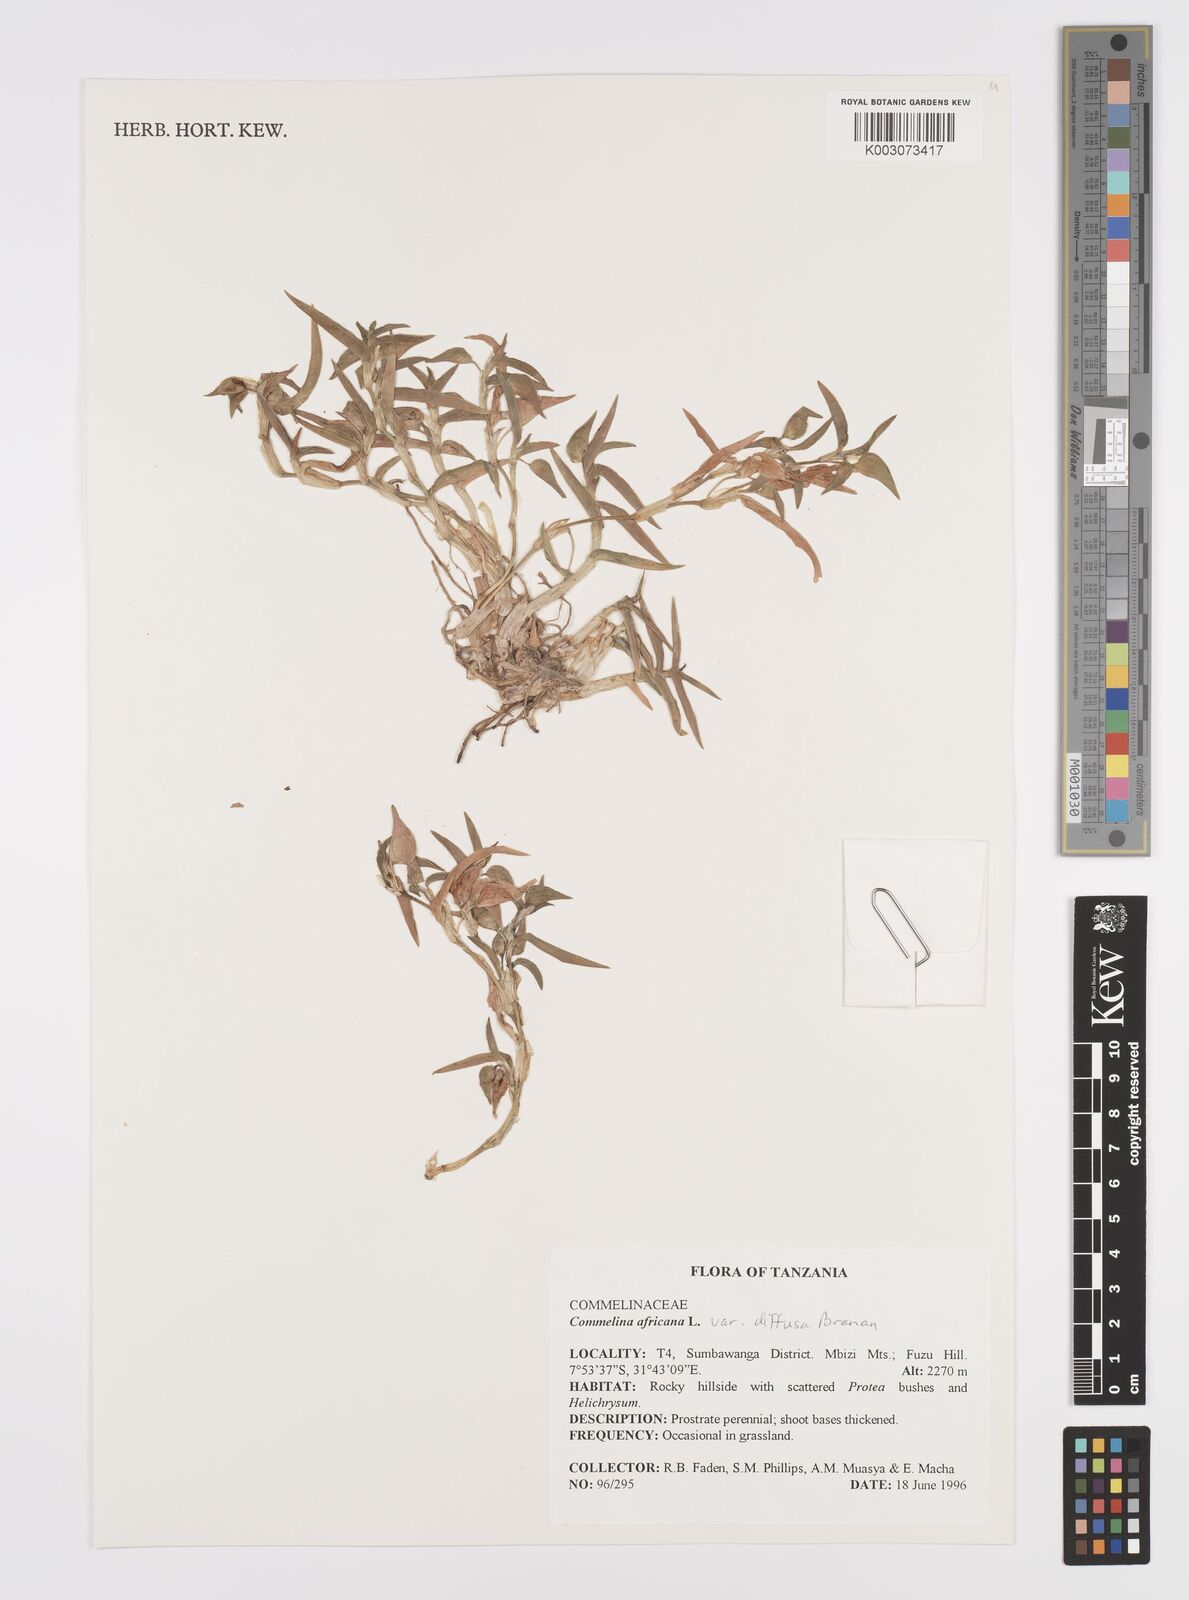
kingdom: Plantae
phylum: Tracheophyta
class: Liliopsida
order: Commelinales
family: Commelinaceae
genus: Commelina
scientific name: Commelina africana
